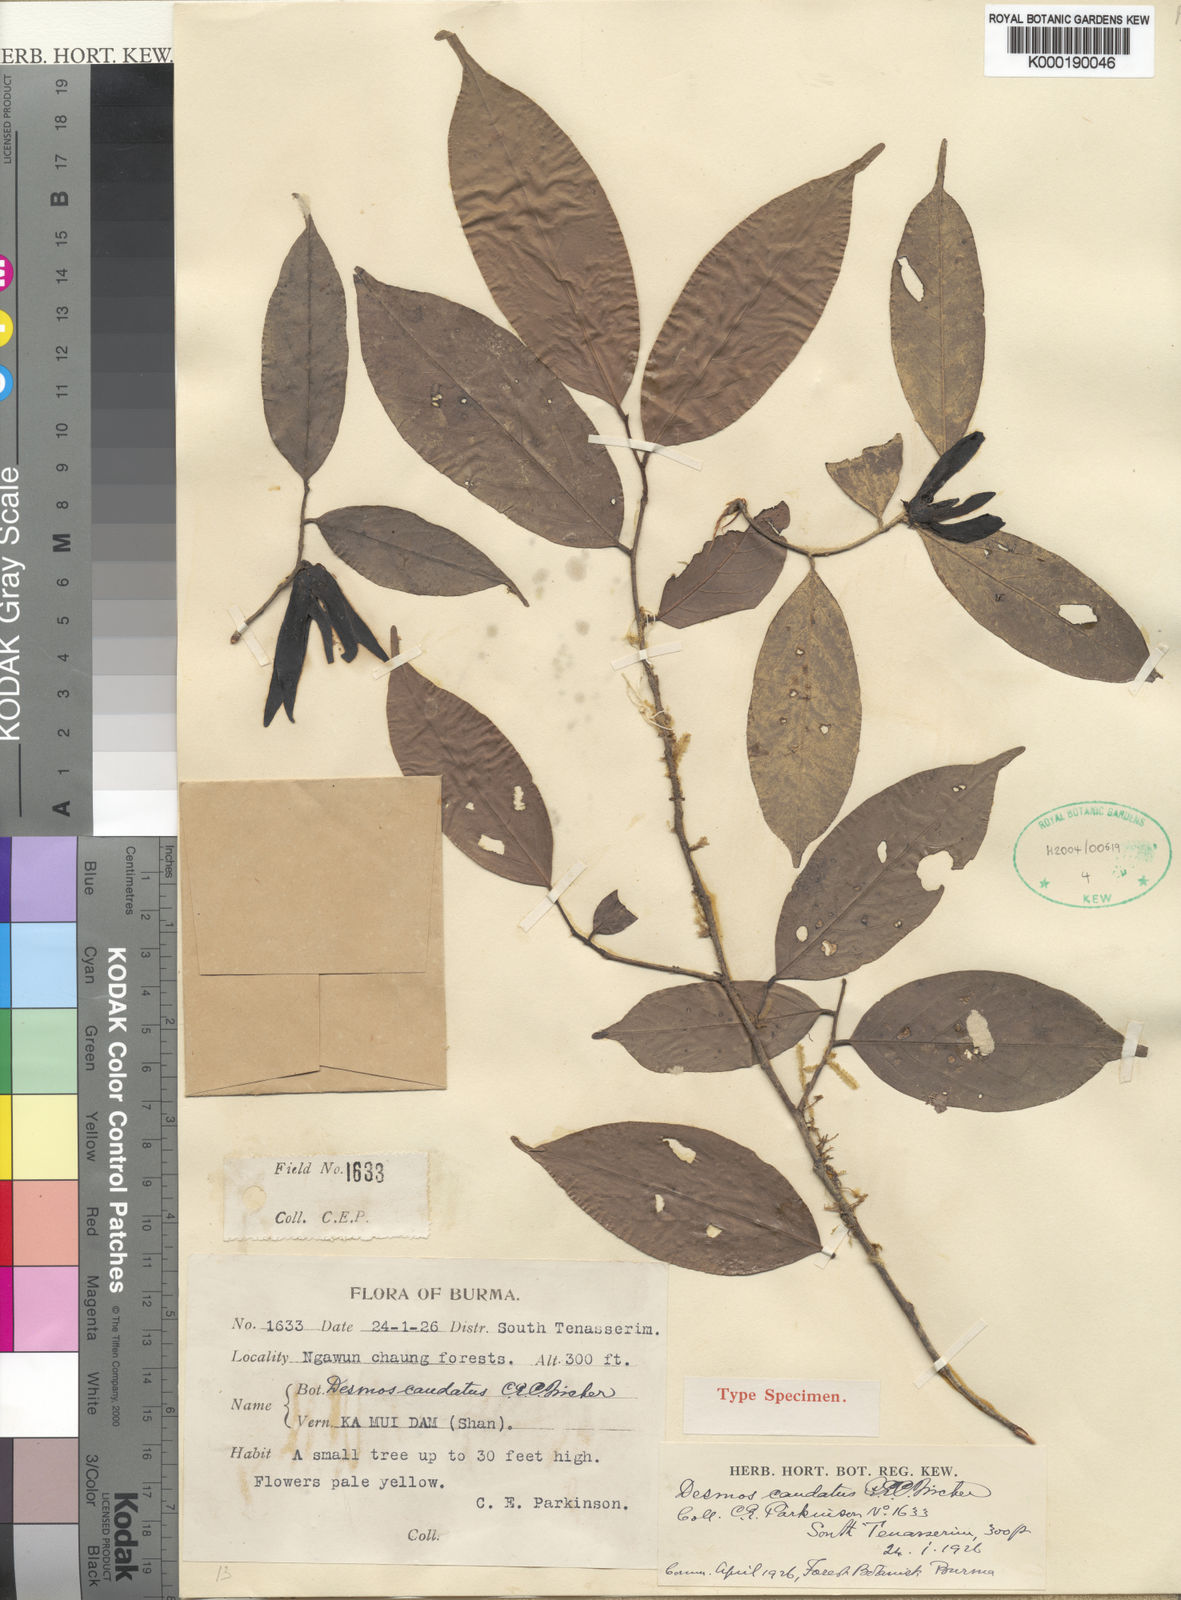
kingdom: Plantae
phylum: Tracheophyta
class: Magnoliopsida
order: Magnoliales
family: Annonaceae
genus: Desmos
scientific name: Desmos caudatus
